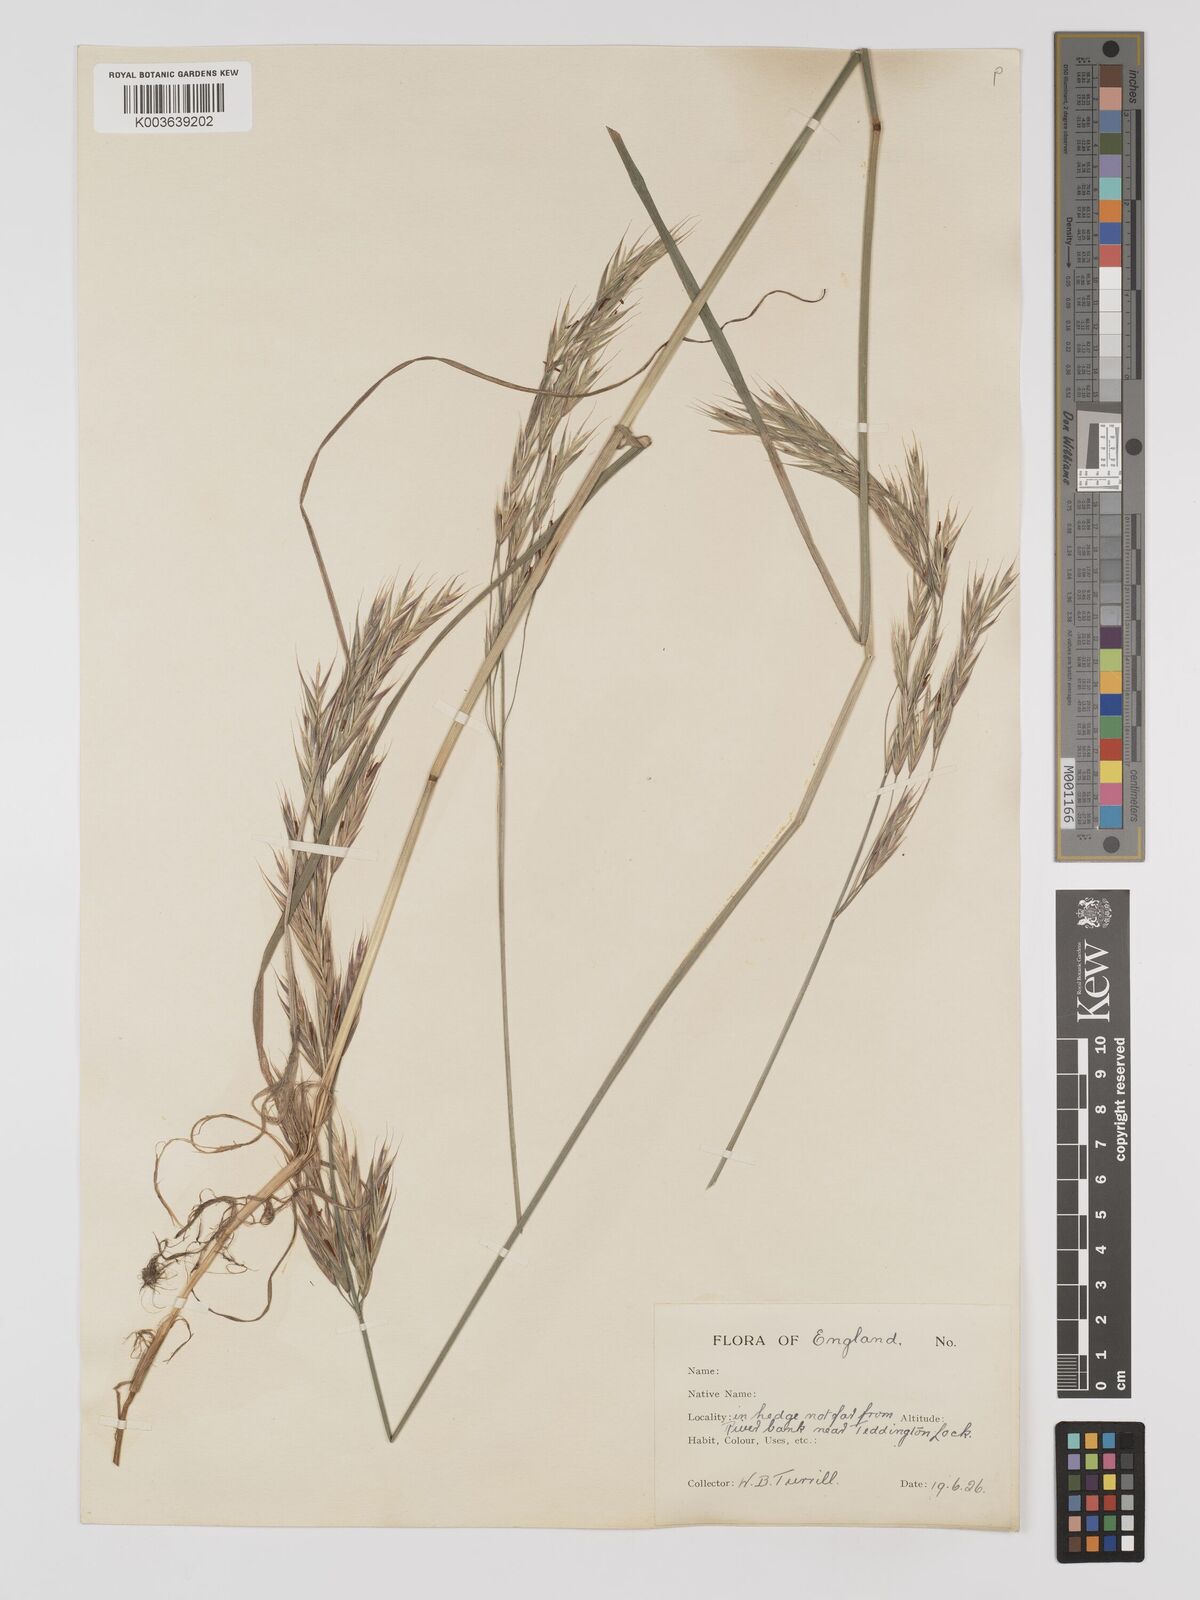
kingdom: Plantae
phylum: Tracheophyta
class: Liliopsida
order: Poales
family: Poaceae
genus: Bromus
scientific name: Bromus erectus
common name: Erect brome
